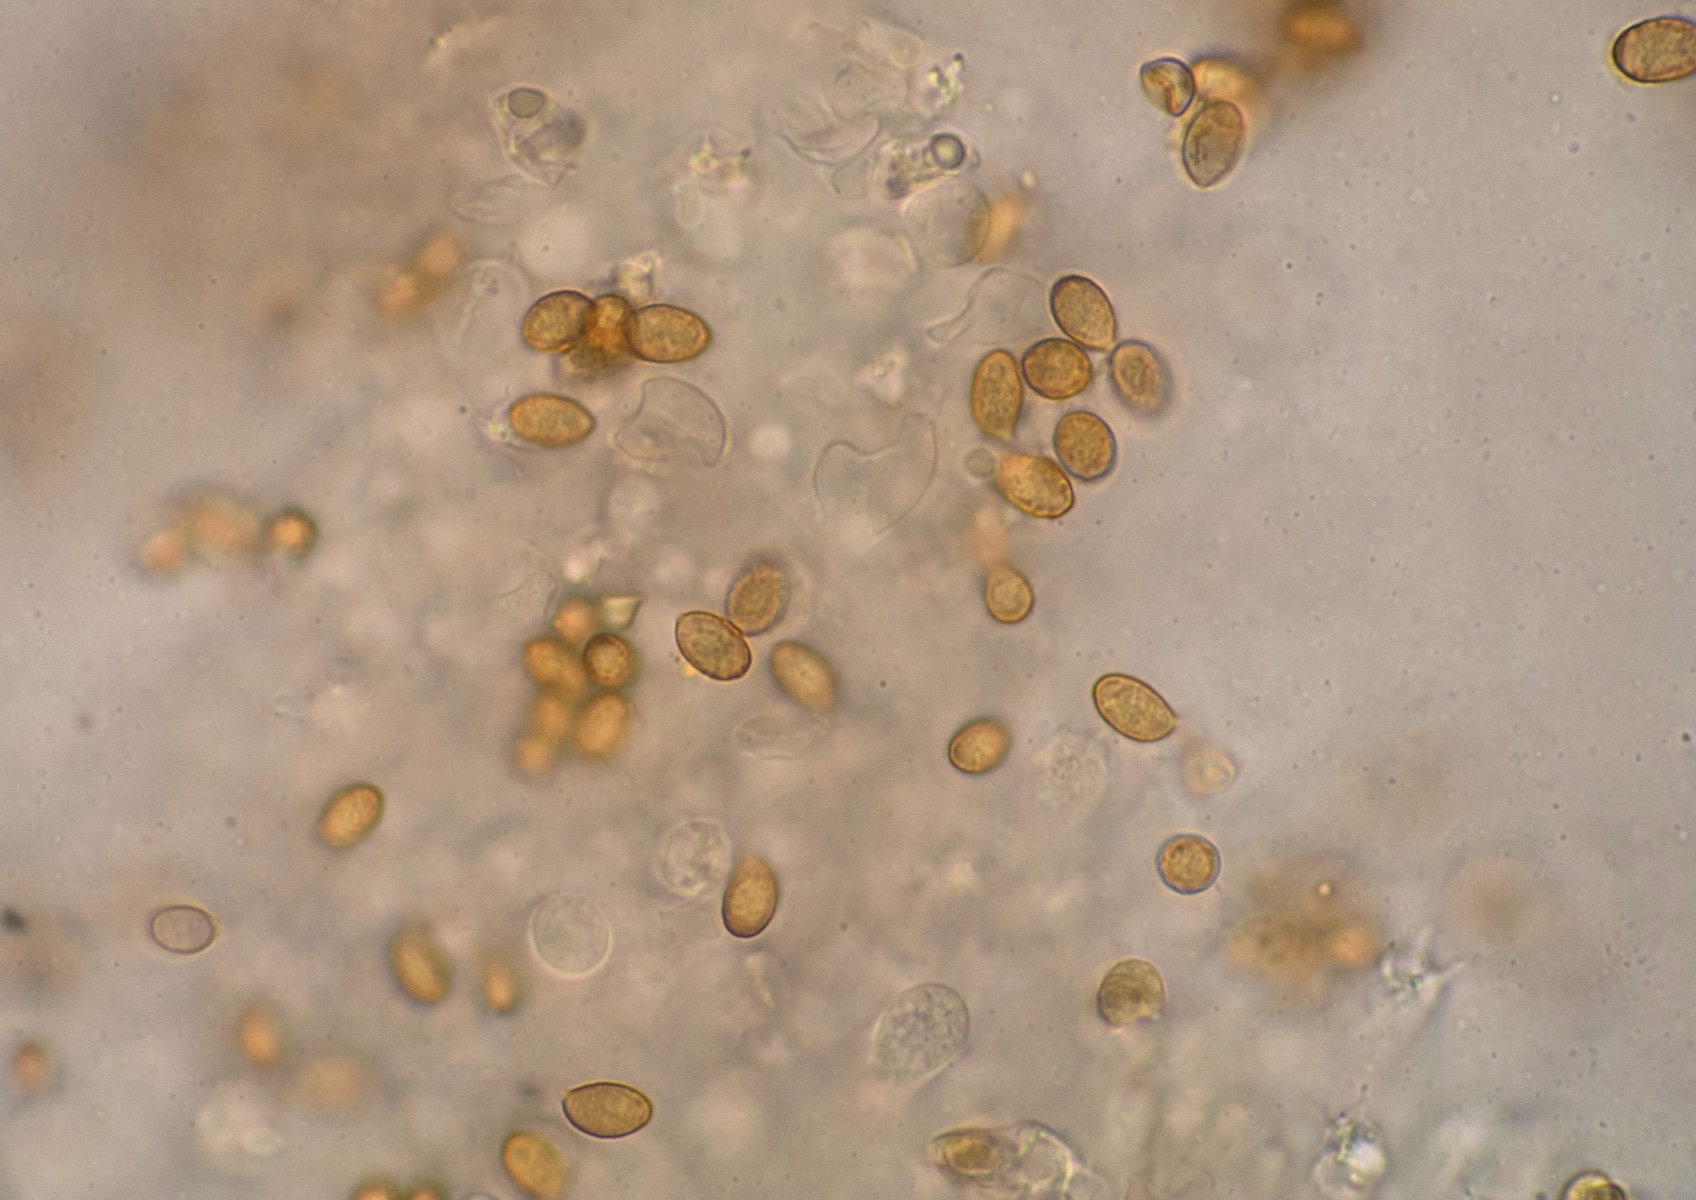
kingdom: Fungi
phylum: Basidiomycota
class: Agaricomycetes
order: Agaricales
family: Cortinariaceae
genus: Cortinarius
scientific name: Cortinarius obtusorum
